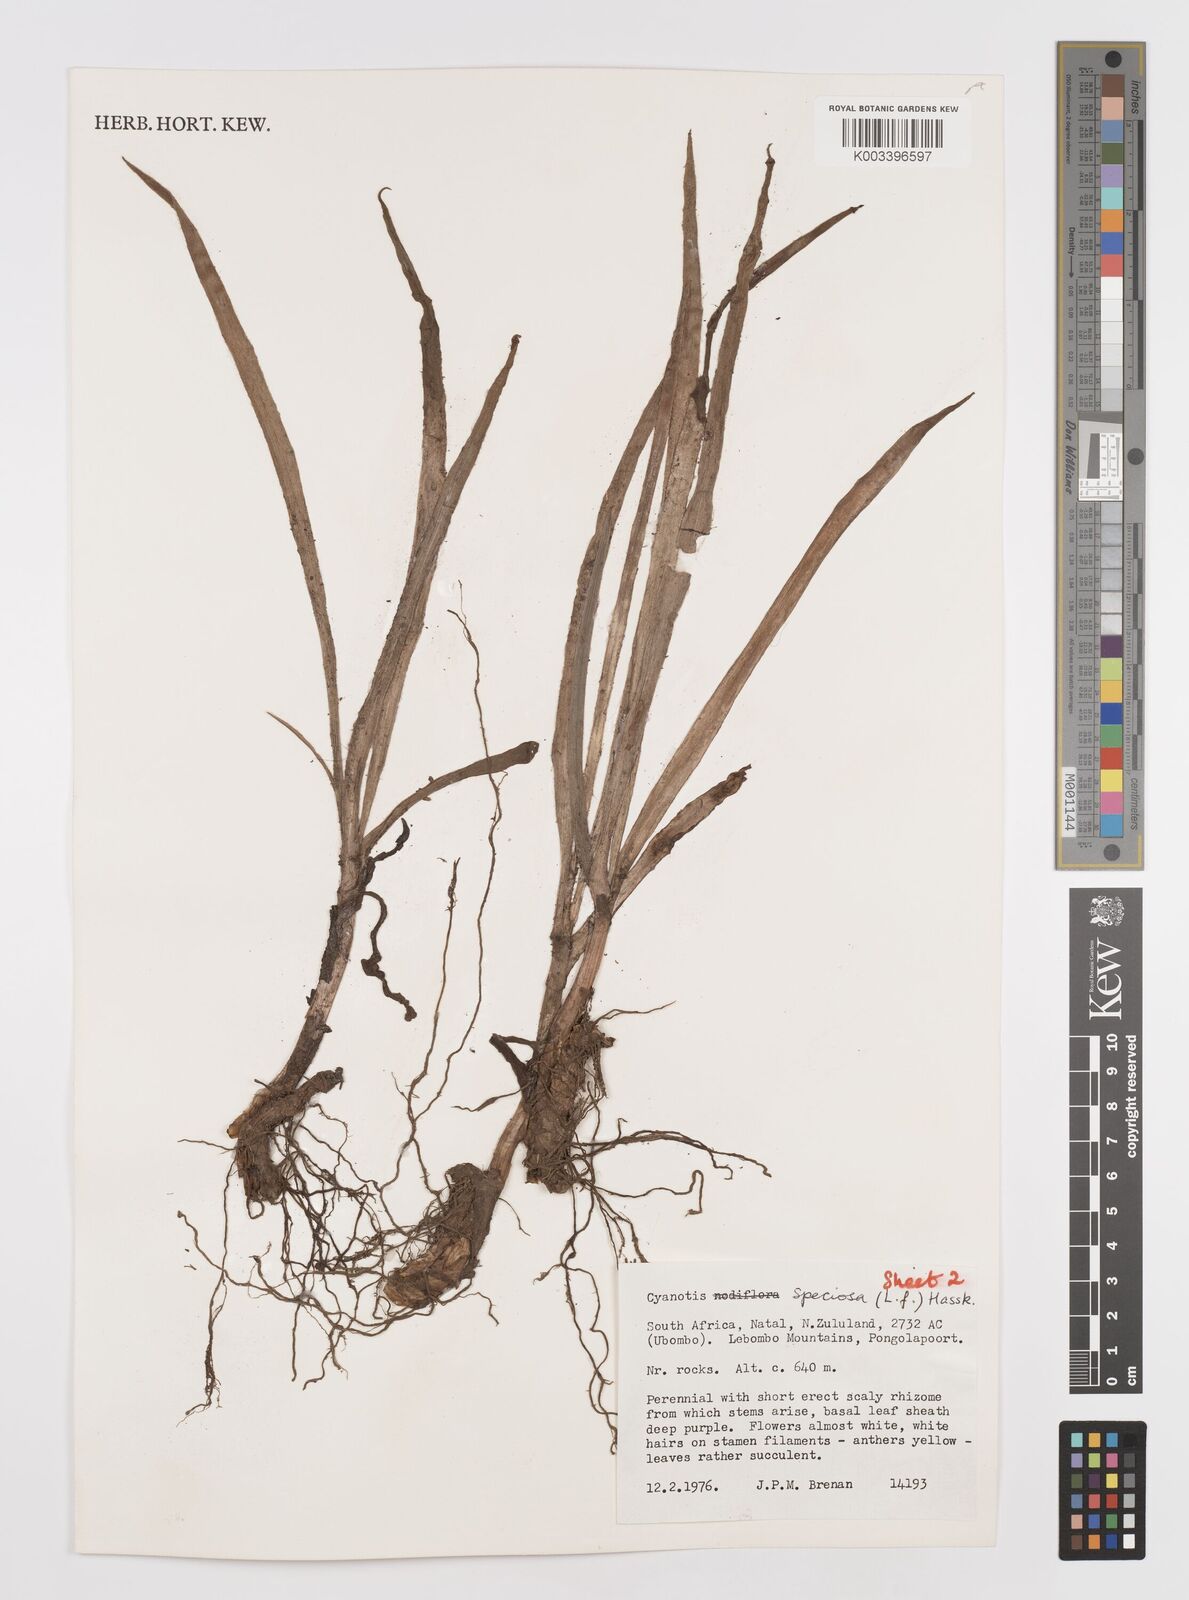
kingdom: Plantae
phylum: Tracheophyta
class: Liliopsida
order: Commelinales
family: Commelinaceae
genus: Cyanotis
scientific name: Cyanotis speciosa
